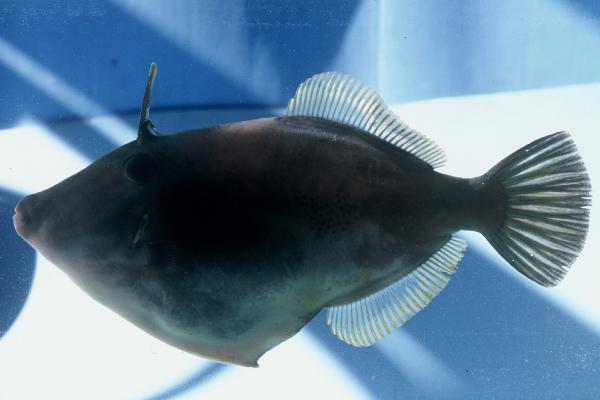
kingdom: Animalia
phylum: Chordata
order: Tetraodontiformes
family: Monacanthidae
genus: Thamnaconus
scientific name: Thamnaconus arenaceus
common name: Roughskinned filefish
